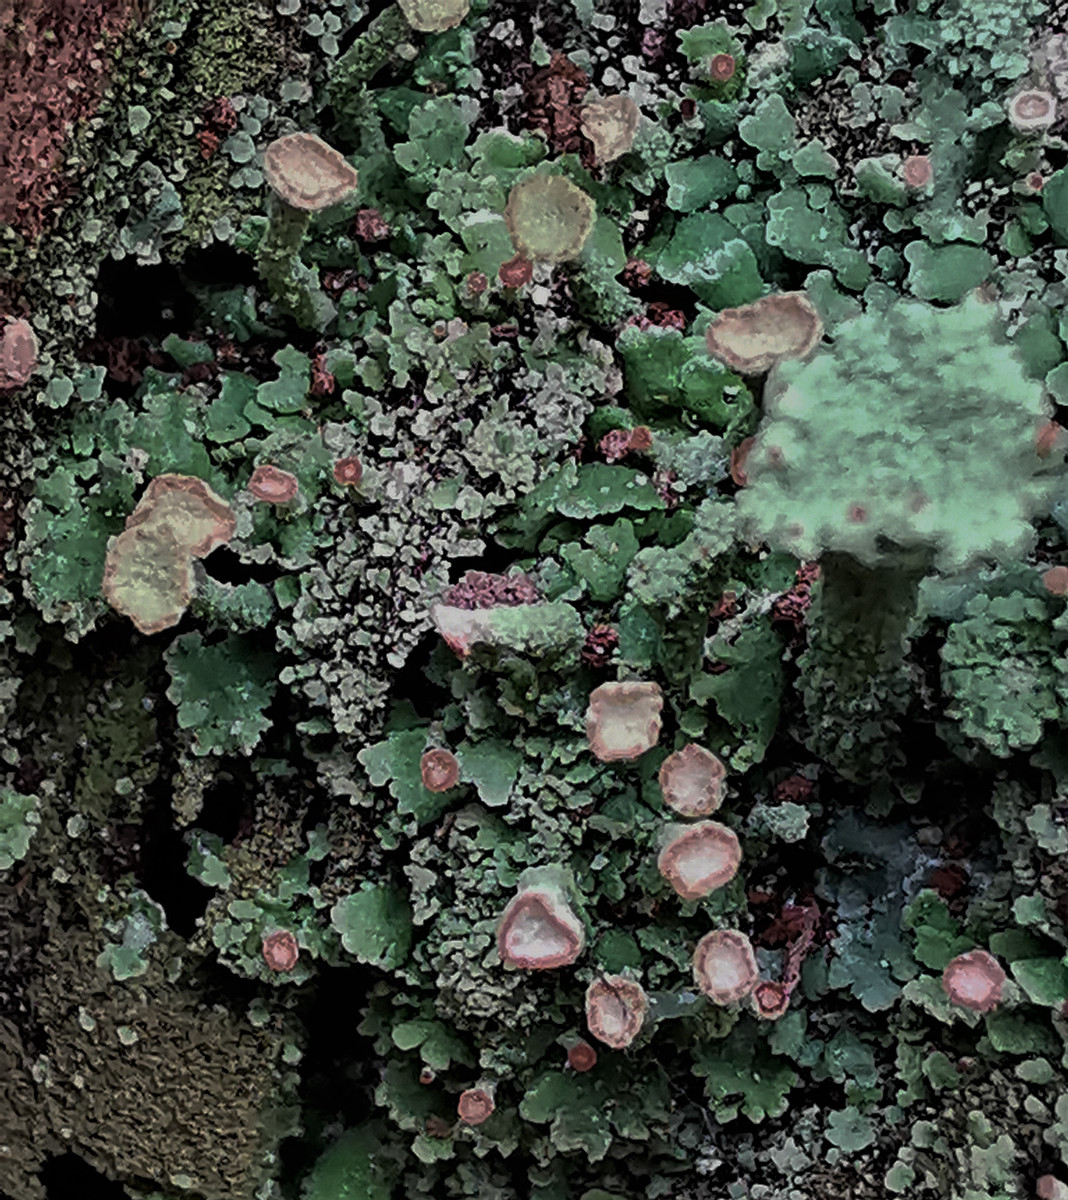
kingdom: Fungi
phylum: Ascomycota
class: Lecanoromycetes
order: Lecanorales
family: Cladoniaceae
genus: Cladonia
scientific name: Cladonia
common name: brungrøn bægerlav
